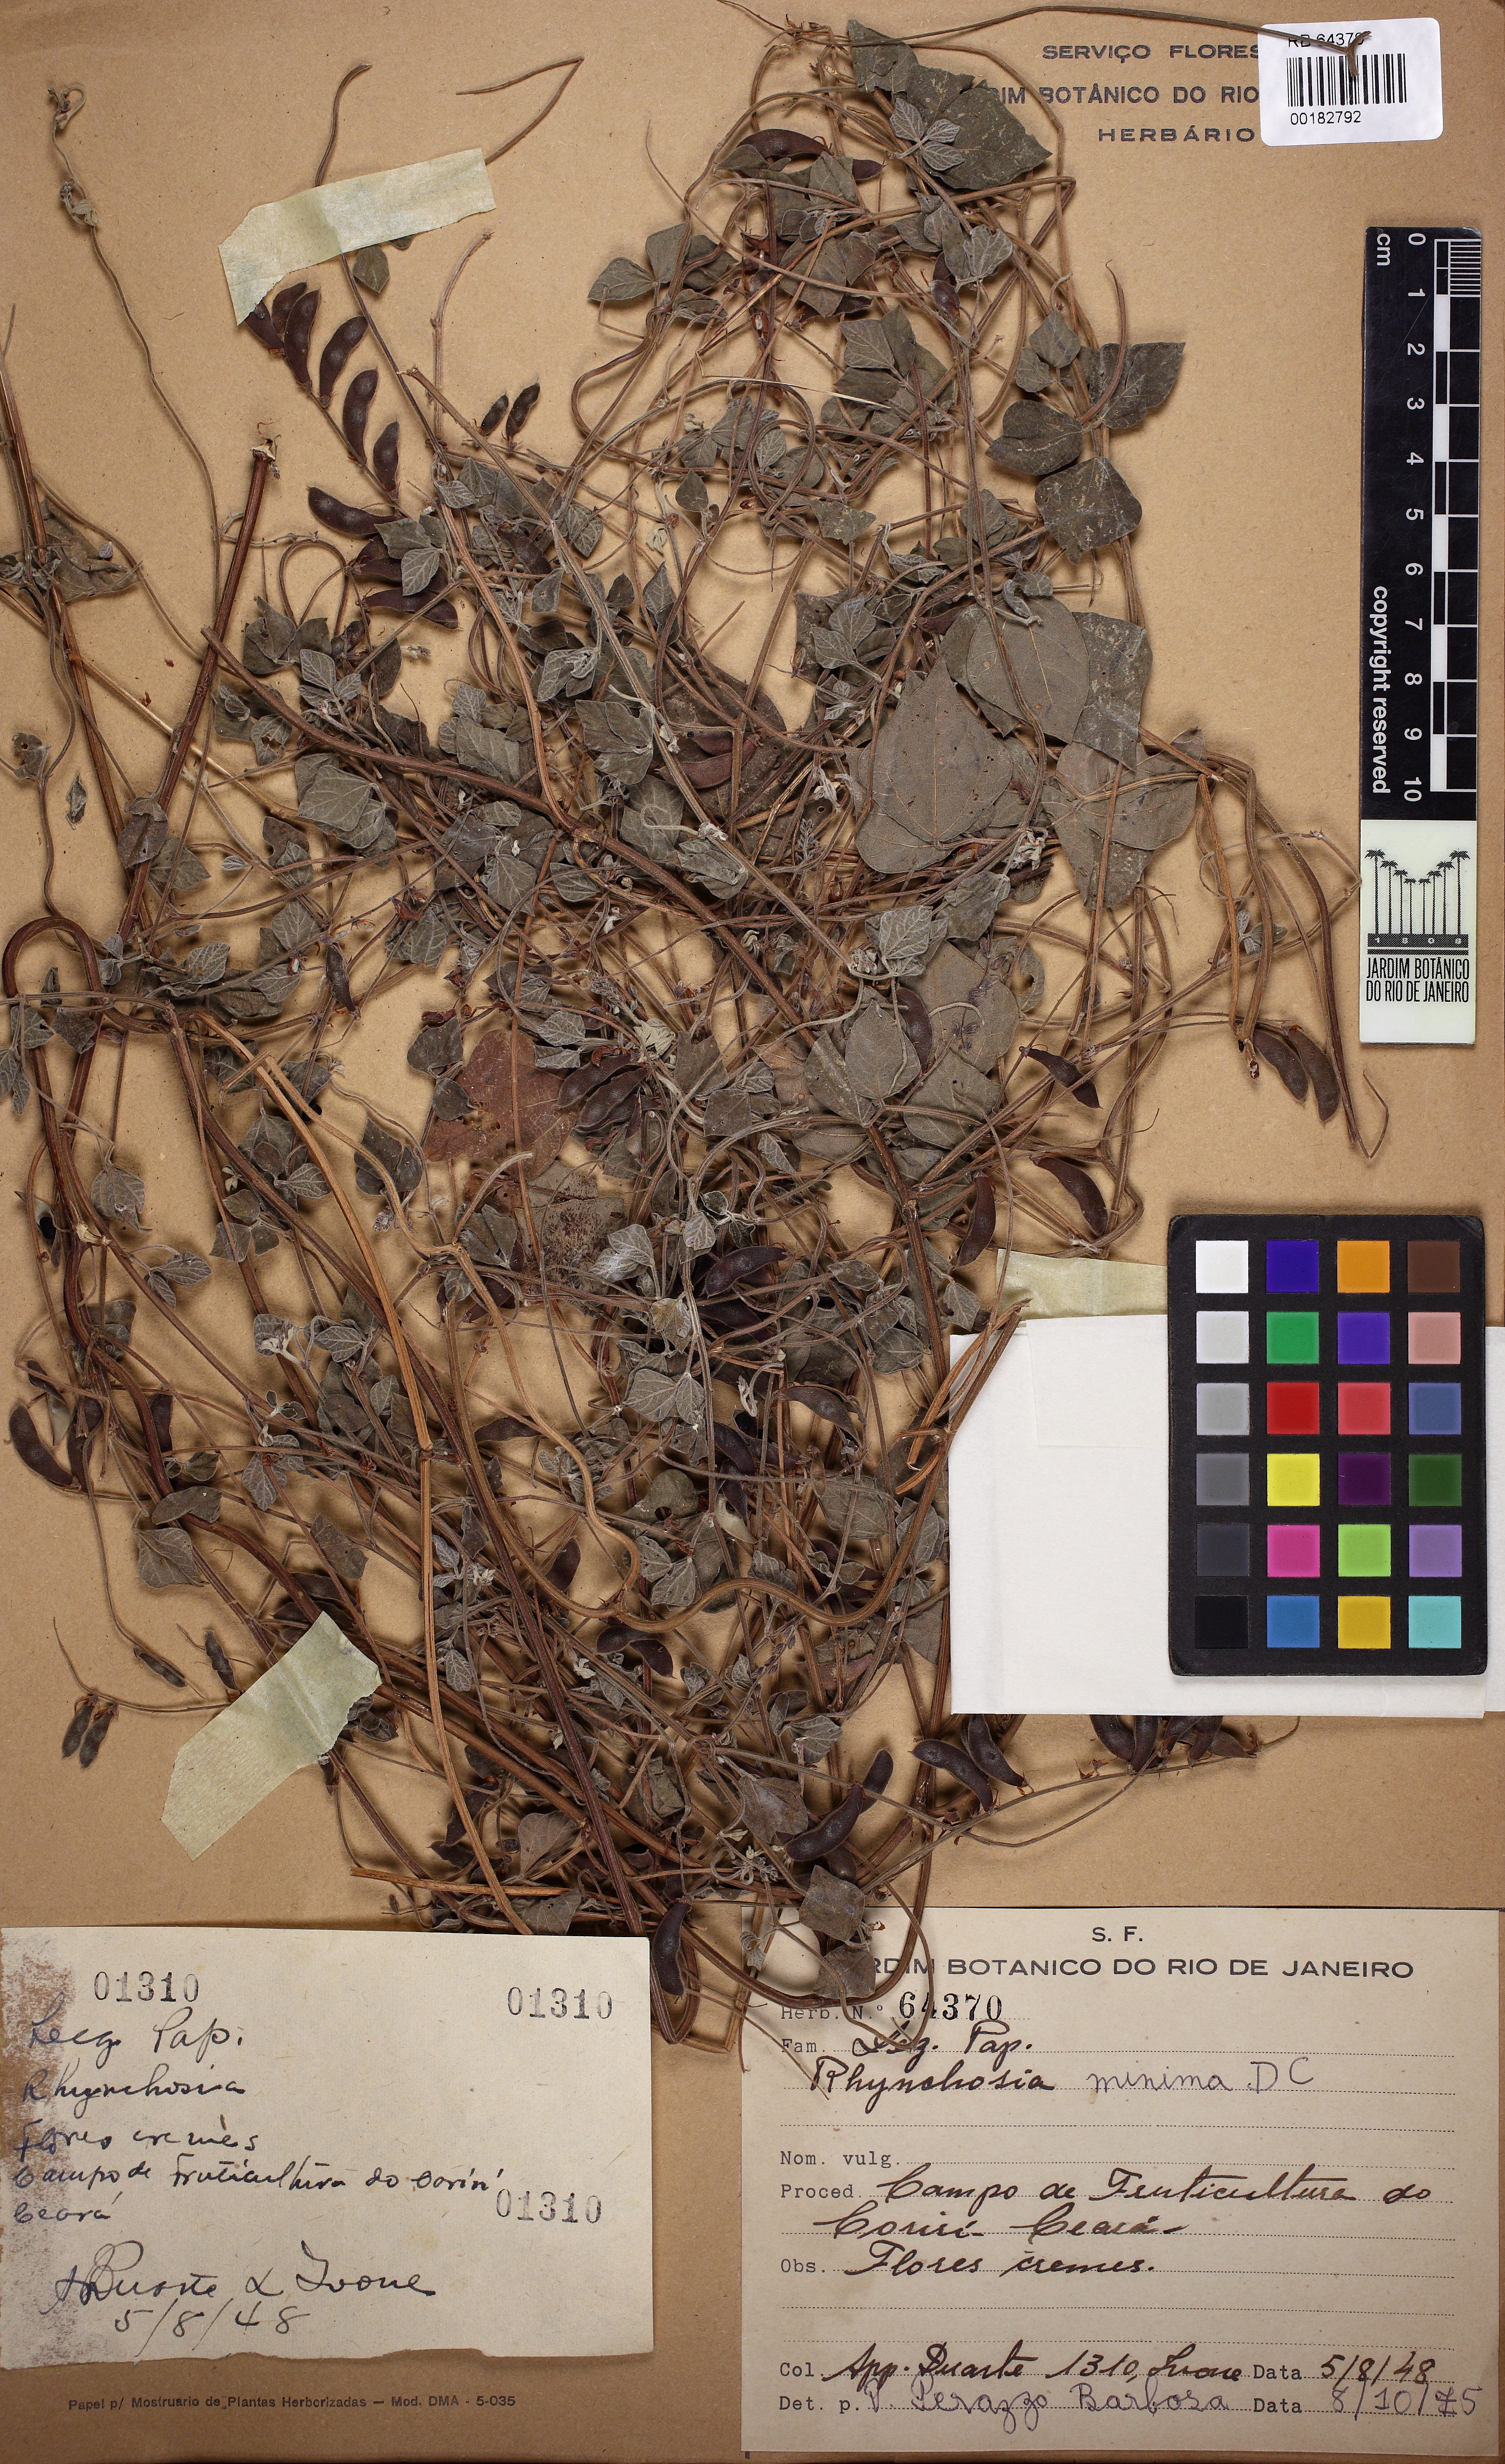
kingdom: Plantae
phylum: Tracheophyta
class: Magnoliopsida
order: Fabales
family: Fabaceae
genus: Rhynchosia
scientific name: Rhynchosia minima
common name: Least snoutbean
